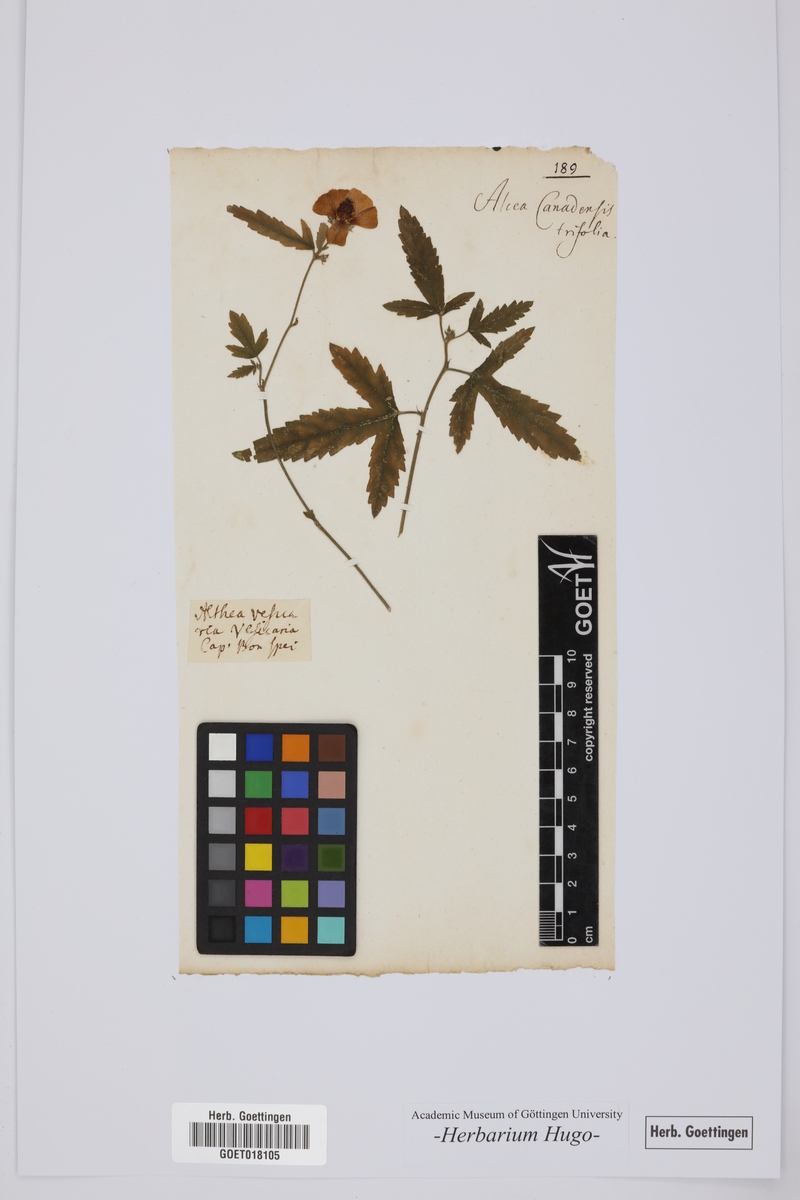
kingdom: Plantae
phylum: Tracheophyta
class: Magnoliopsida
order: Malvales
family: Malvaceae
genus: Hibiscus
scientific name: Hibiscus trionum
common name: Bladder ketmia
